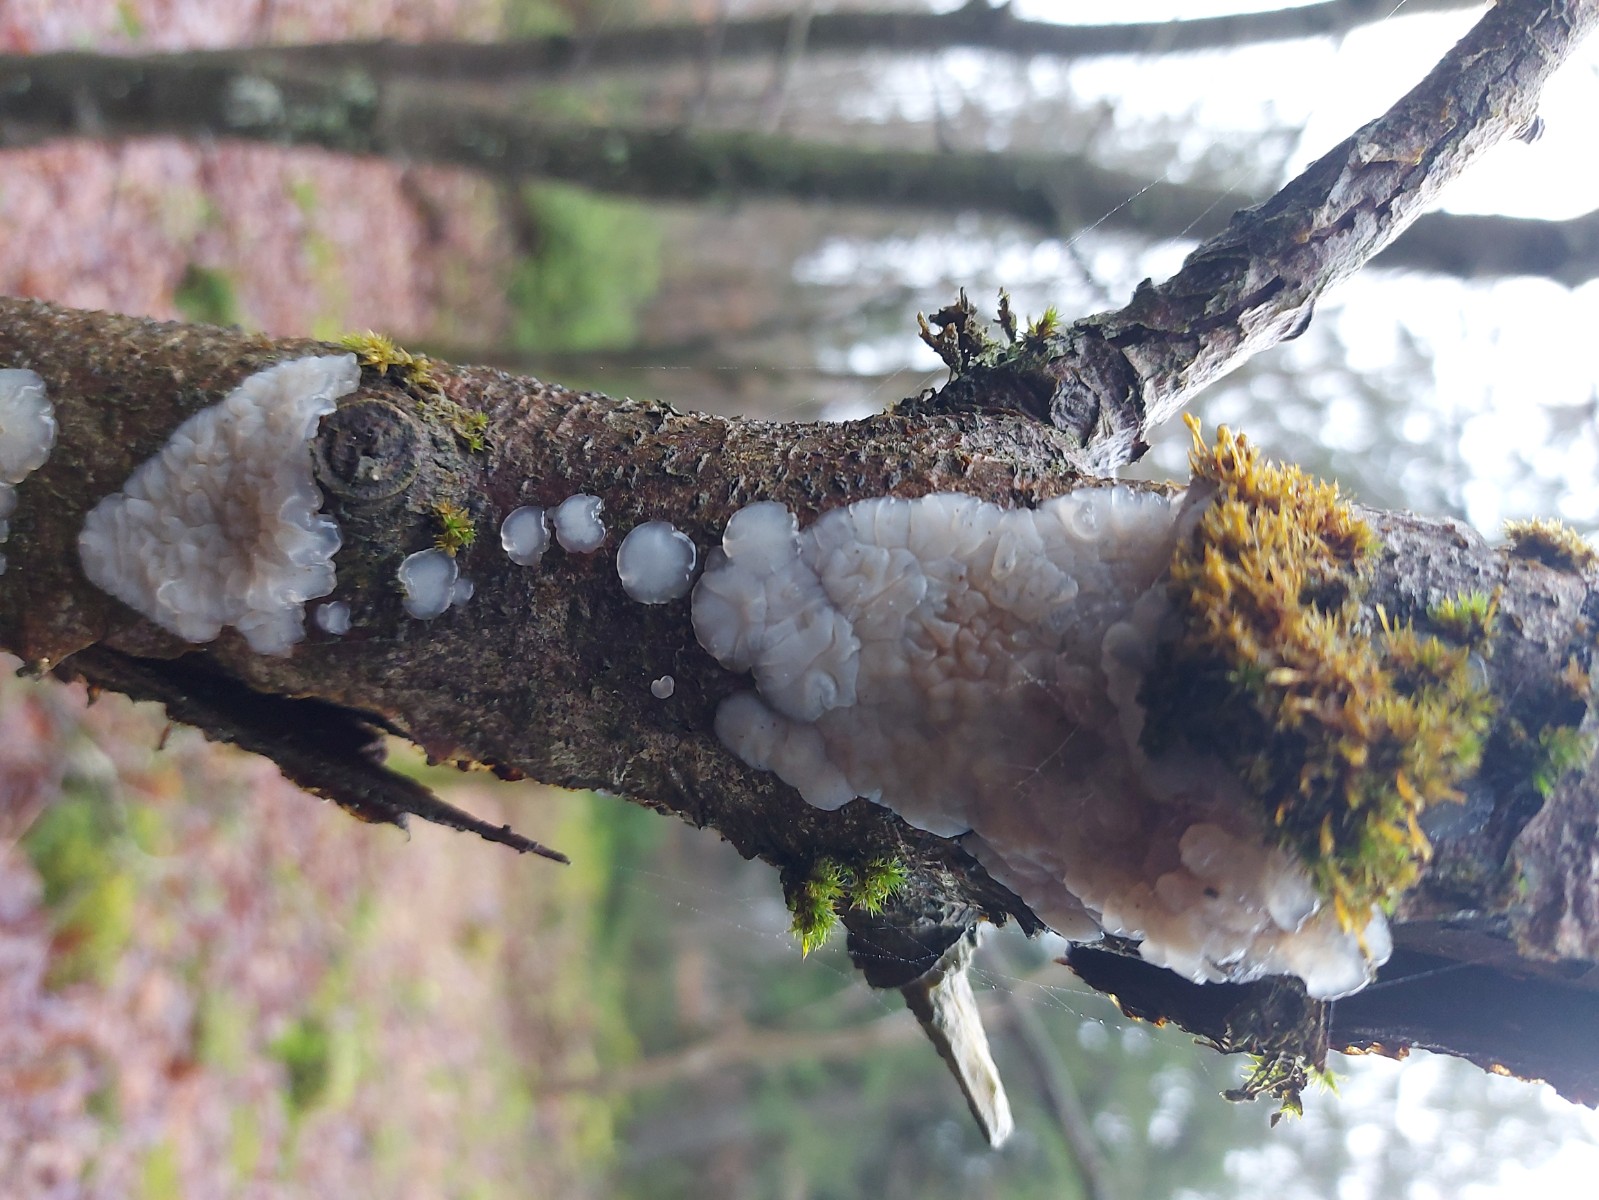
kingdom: Fungi
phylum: Basidiomycota
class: Agaricomycetes
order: Auriculariales
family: Auriculariaceae
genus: Exidia
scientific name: Exidia thuretiana
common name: hvidlig bævretop
